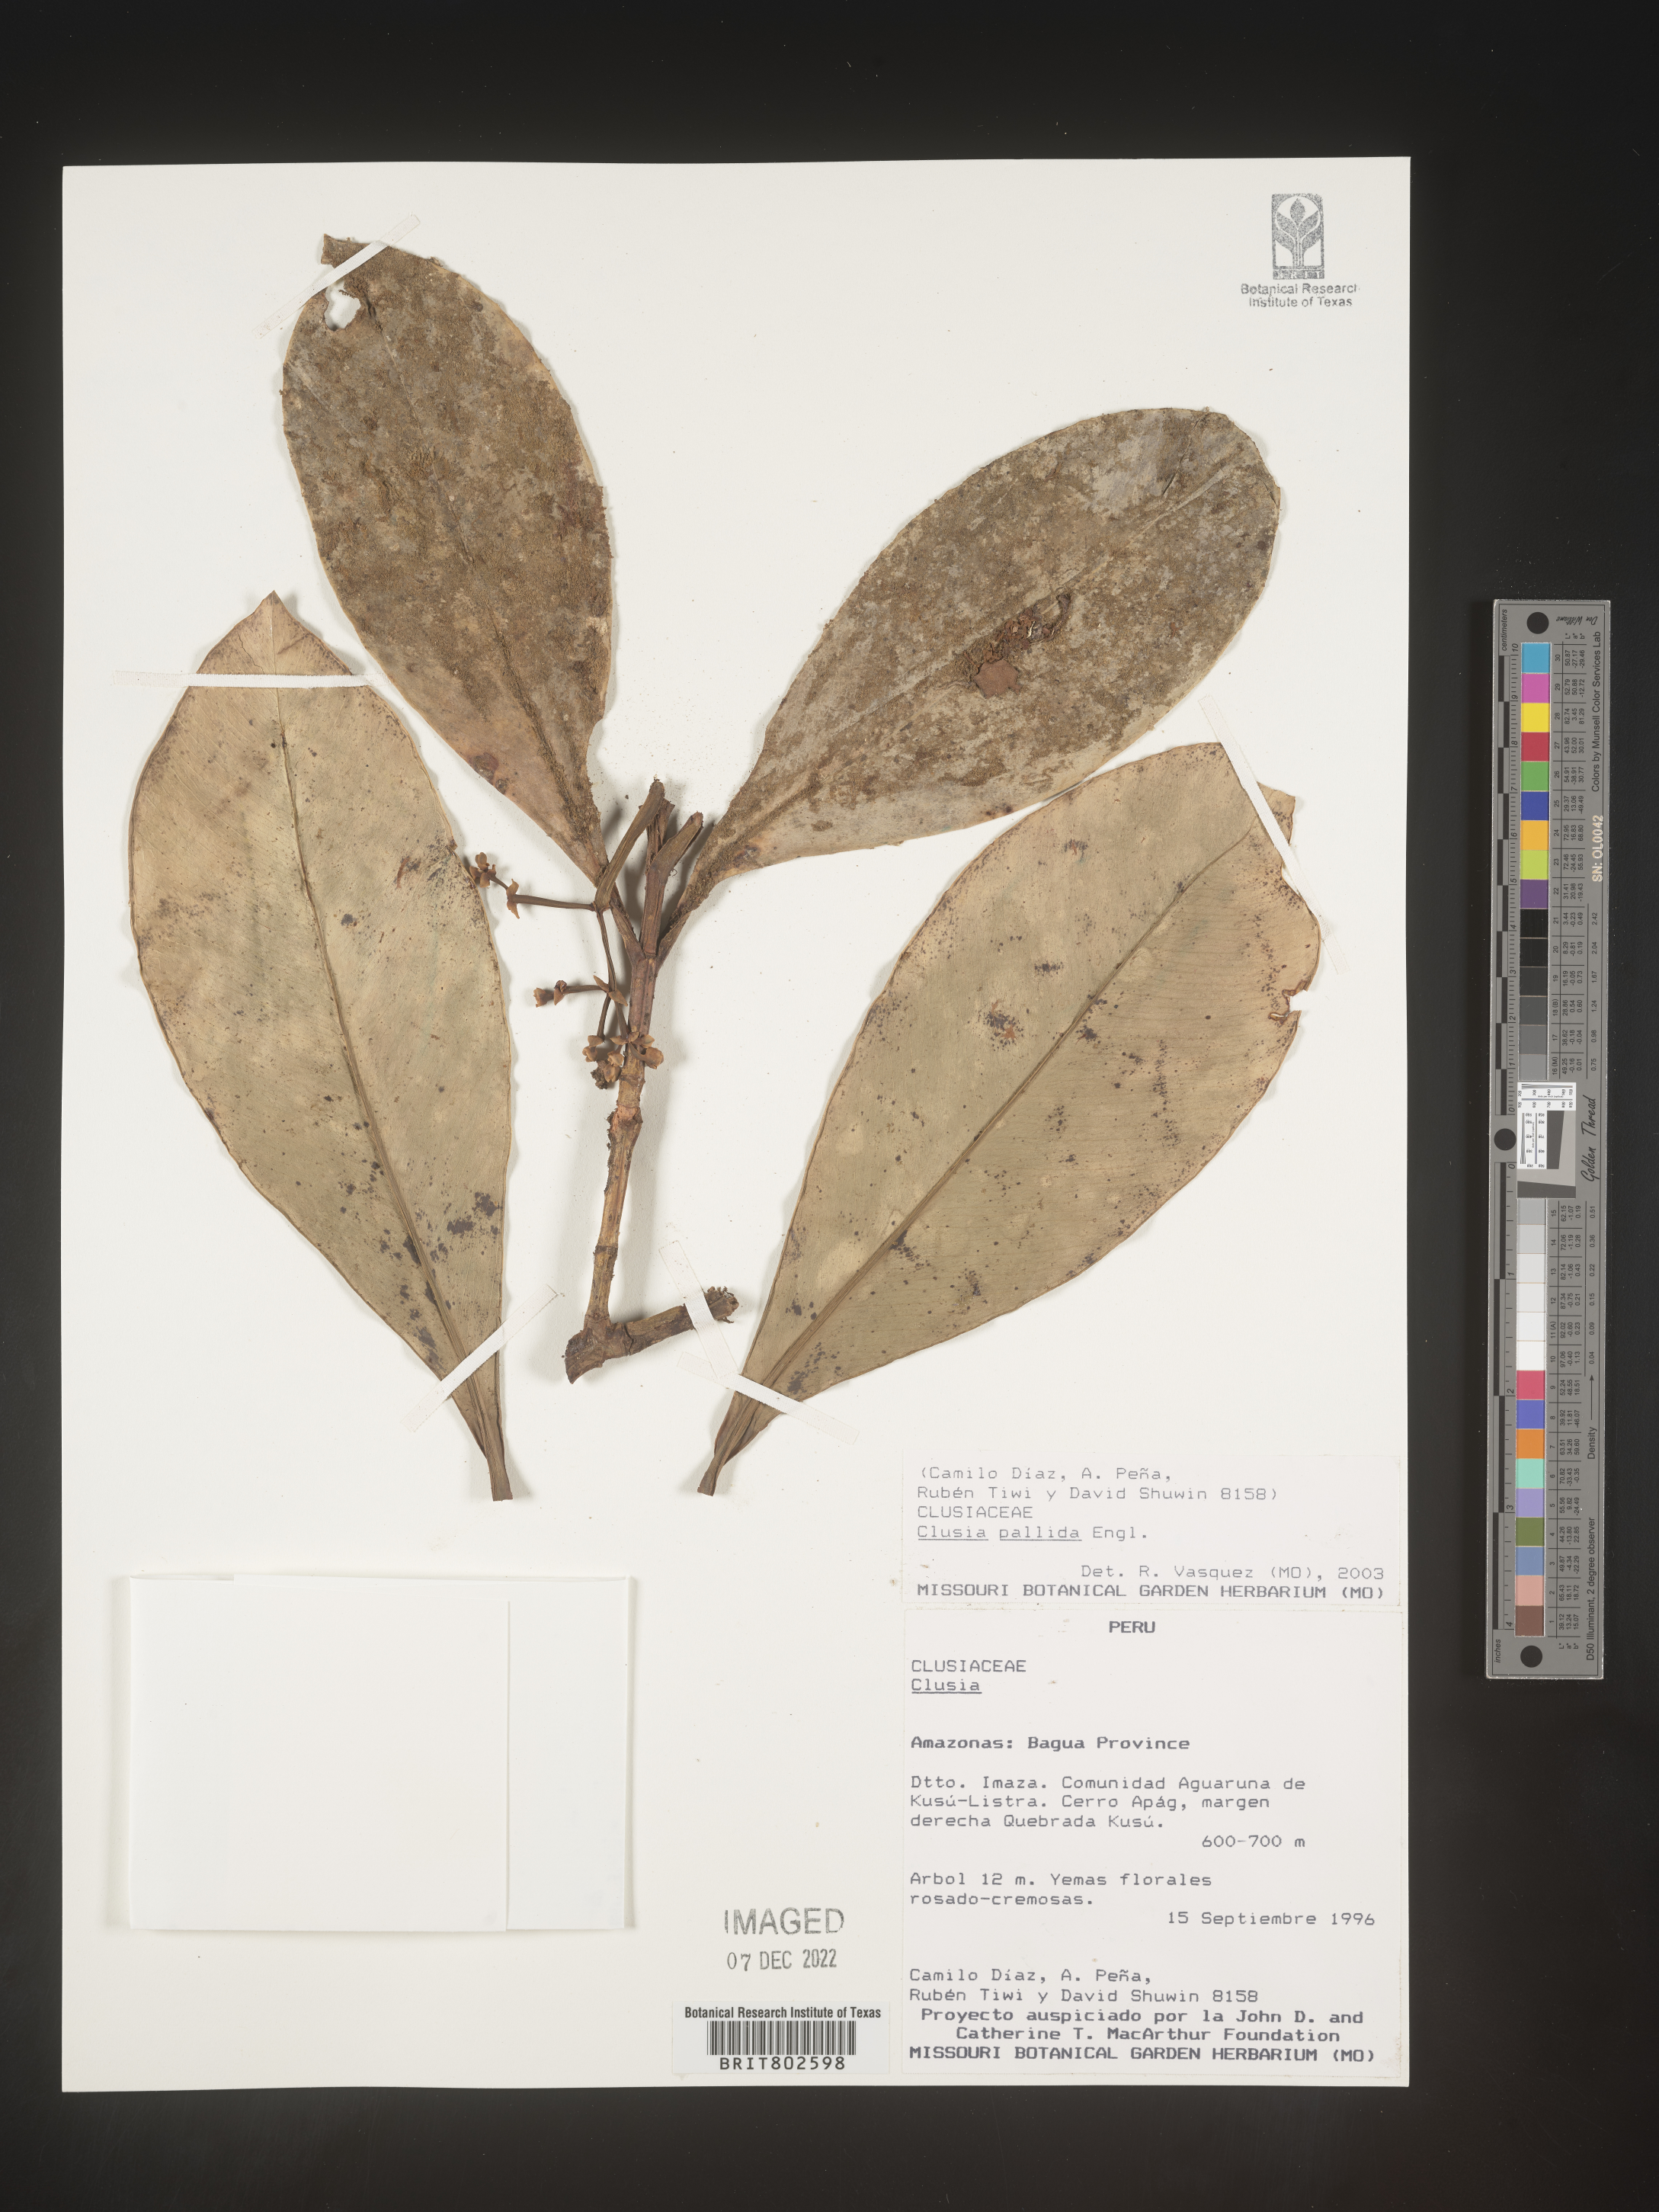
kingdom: Plantae
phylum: Tracheophyta
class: Magnoliopsida
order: Malpighiales
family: Clusiaceae
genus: Clusia
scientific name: Clusia pallida
